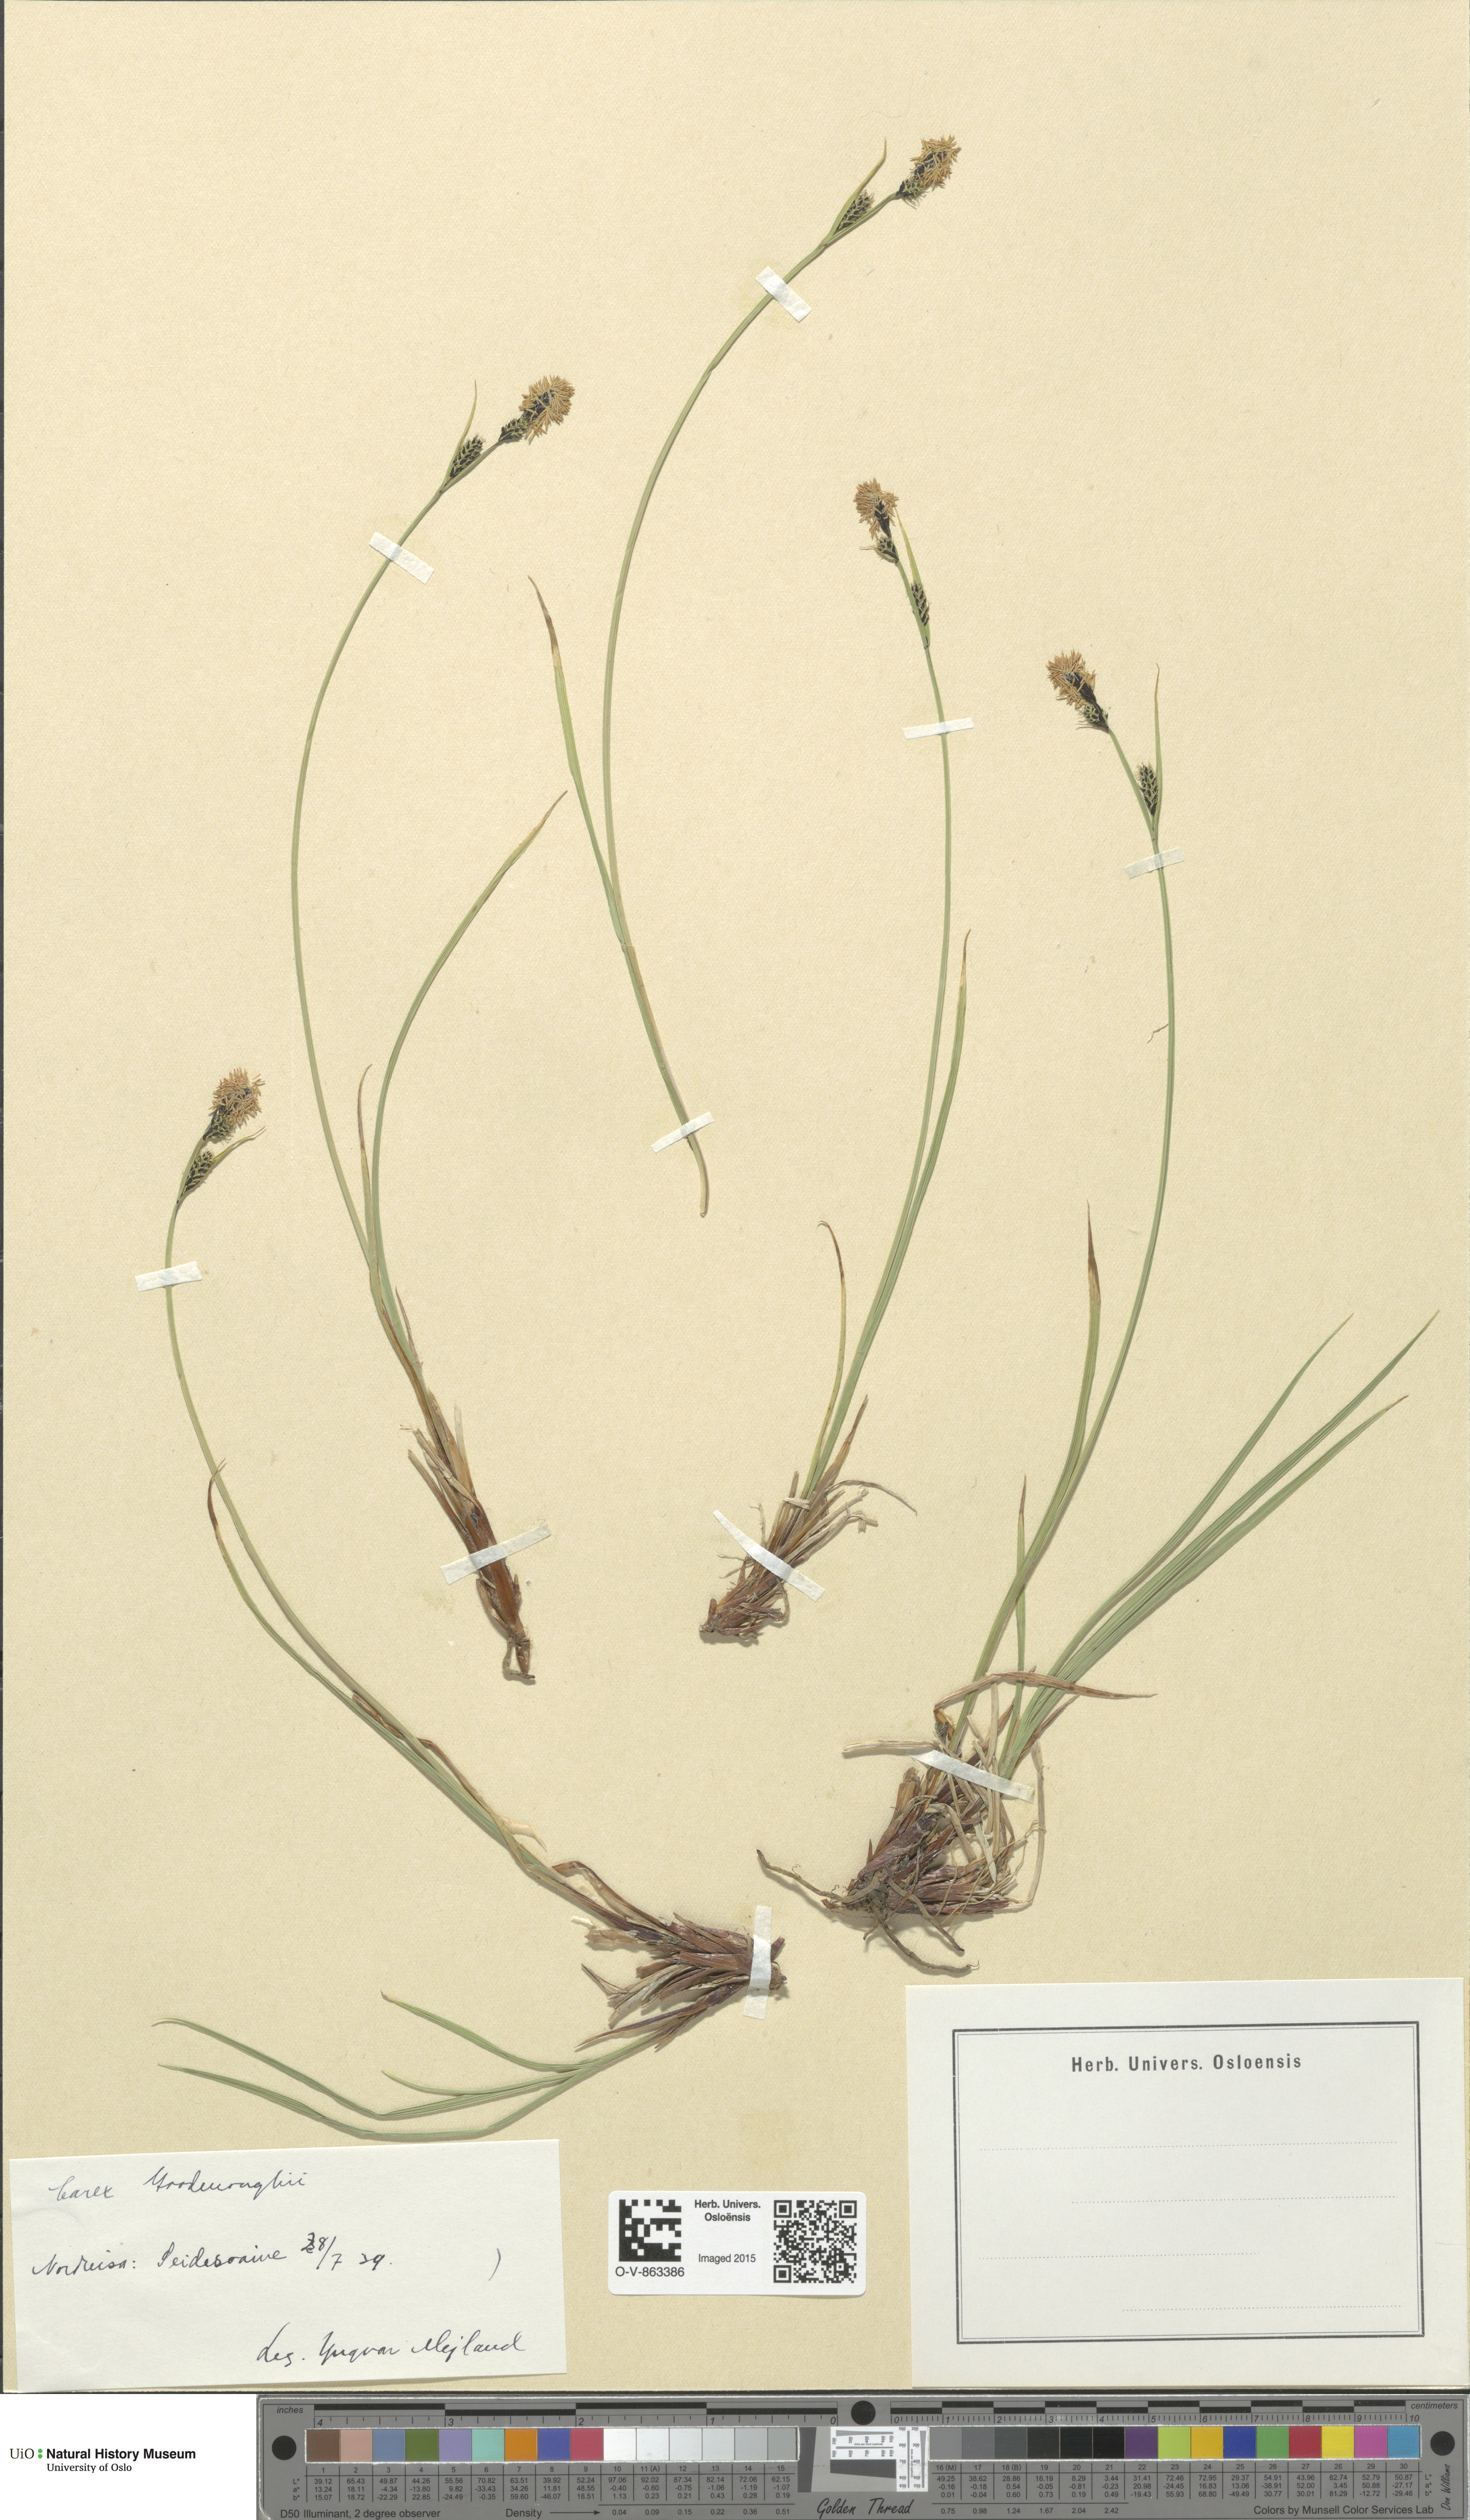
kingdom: Plantae
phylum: Tracheophyta
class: Liliopsida
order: Poales
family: Cyperaceae
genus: Carex
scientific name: Carex nigra
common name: Common sedge
